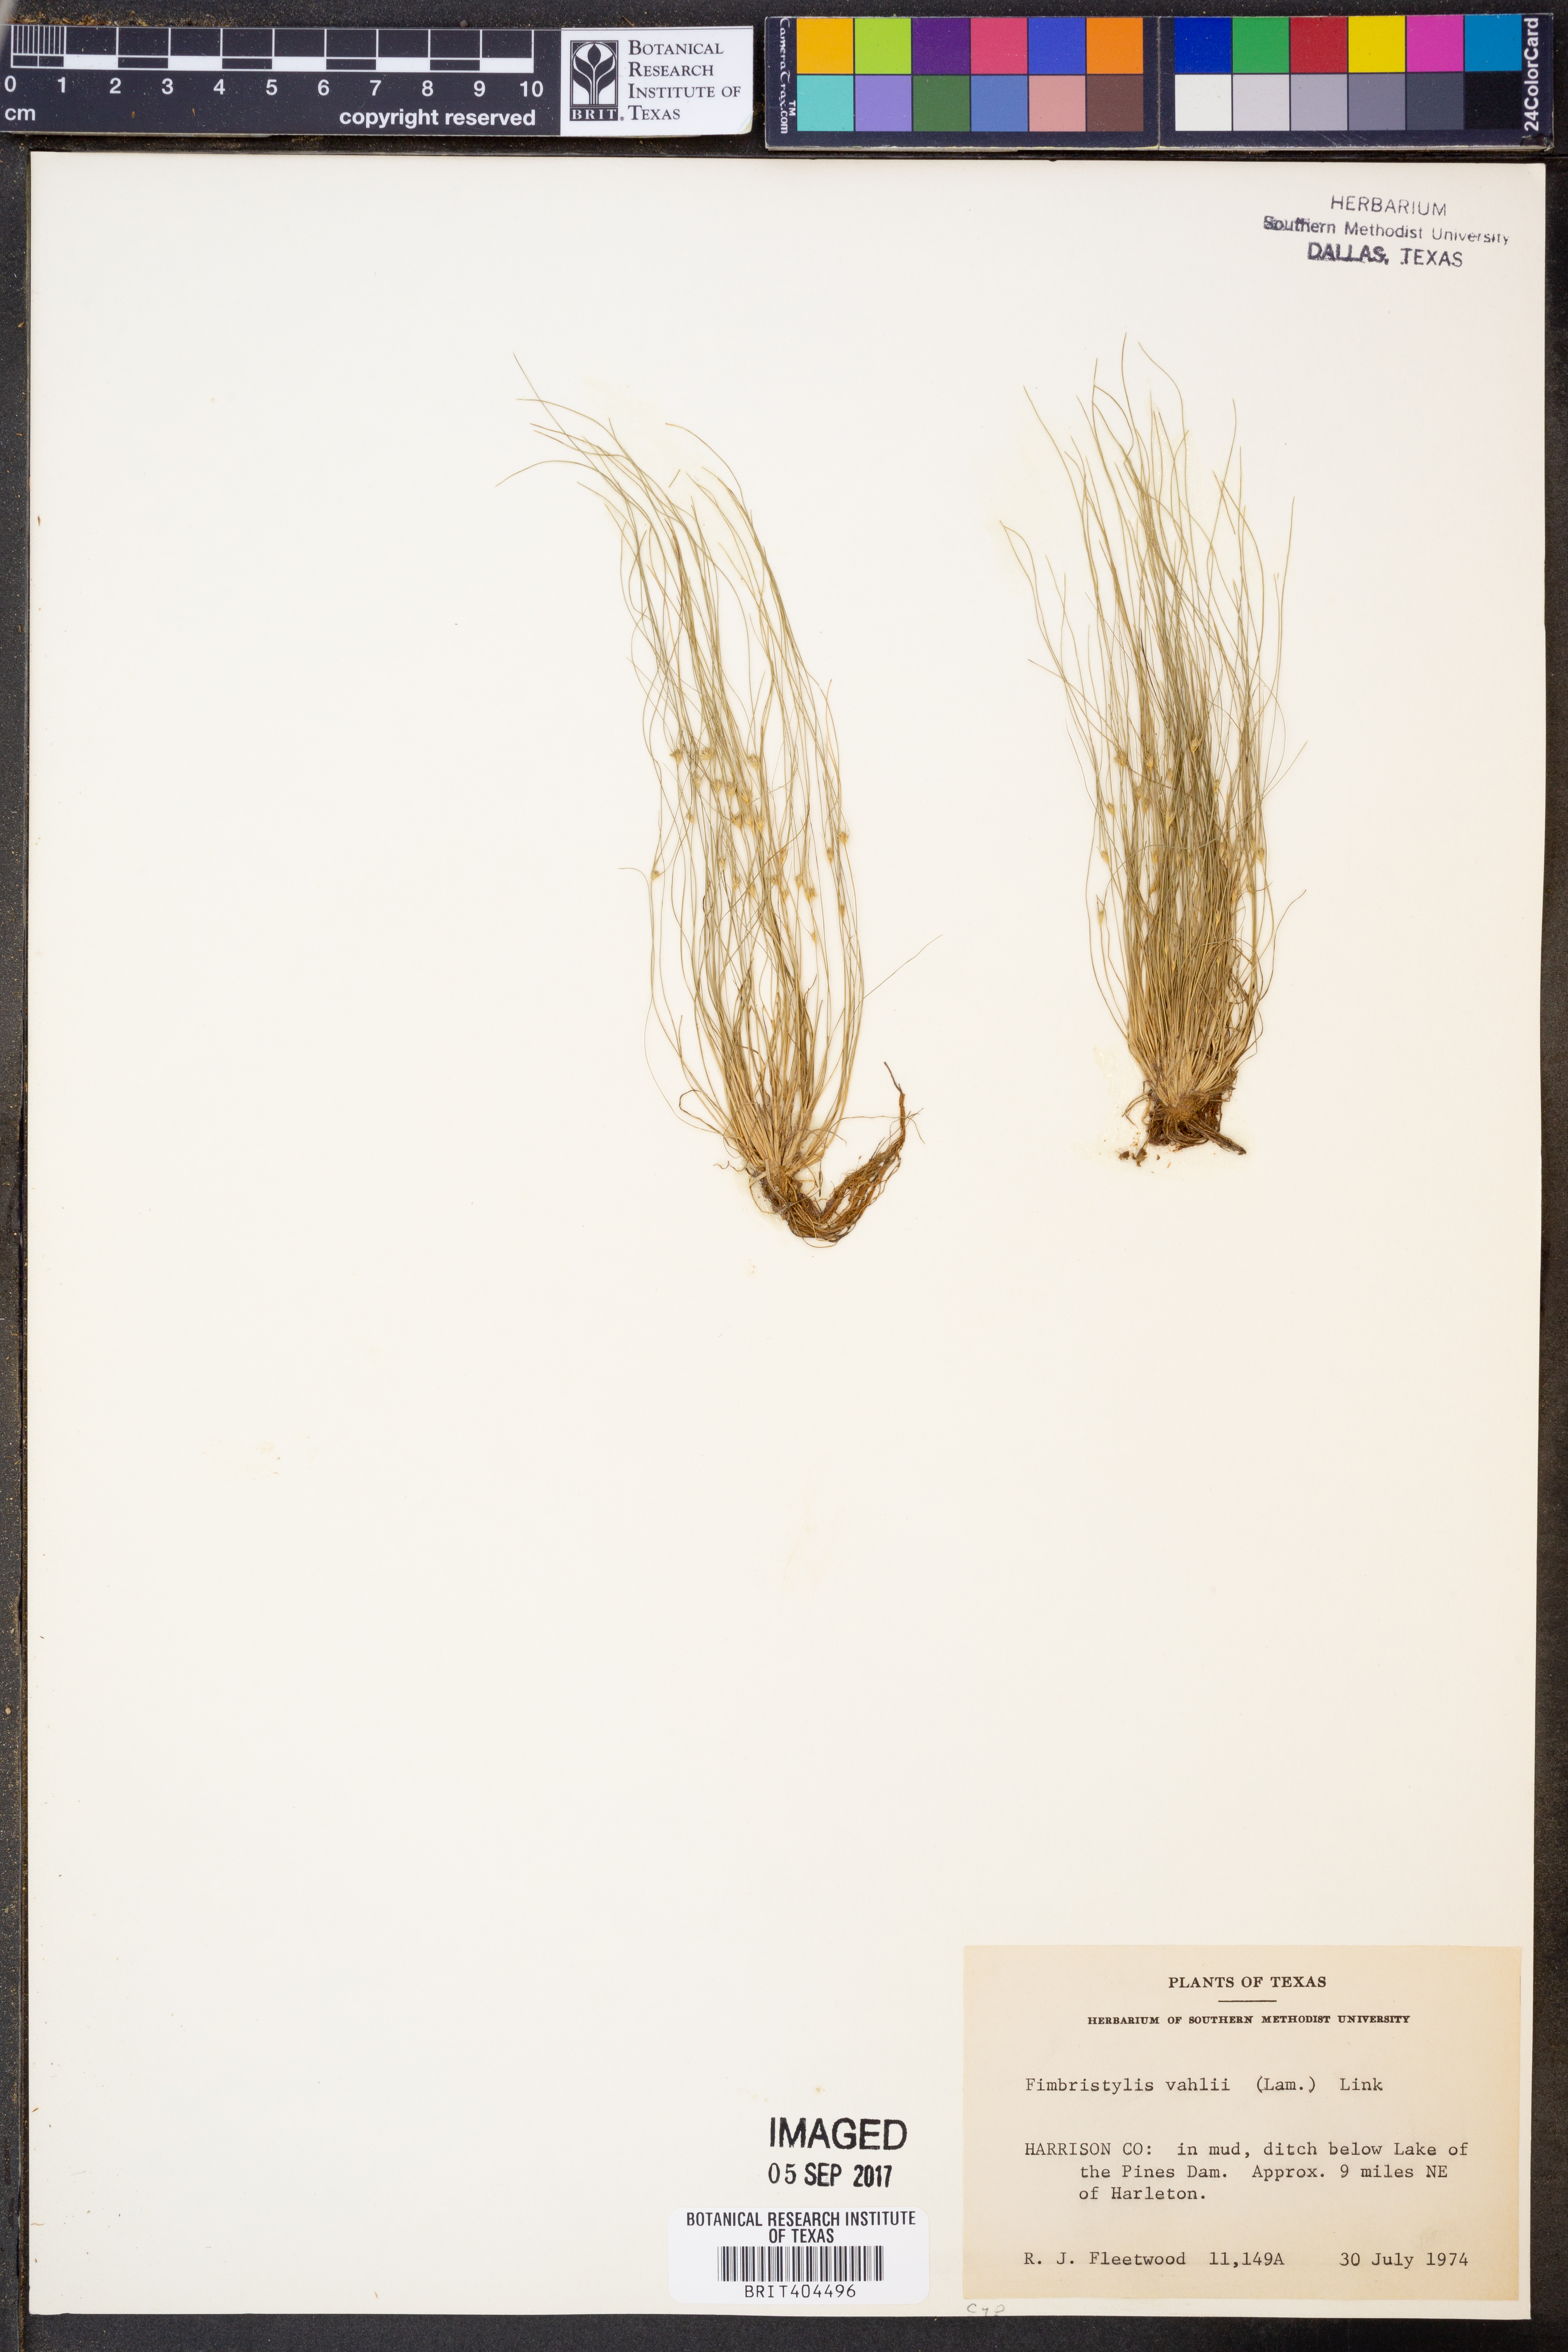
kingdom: Plantae
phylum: Tracheophyta
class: Liliopsida
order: Poales
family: Cyperaceae
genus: Fimbristylis
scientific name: Fimbristylis vahlii
